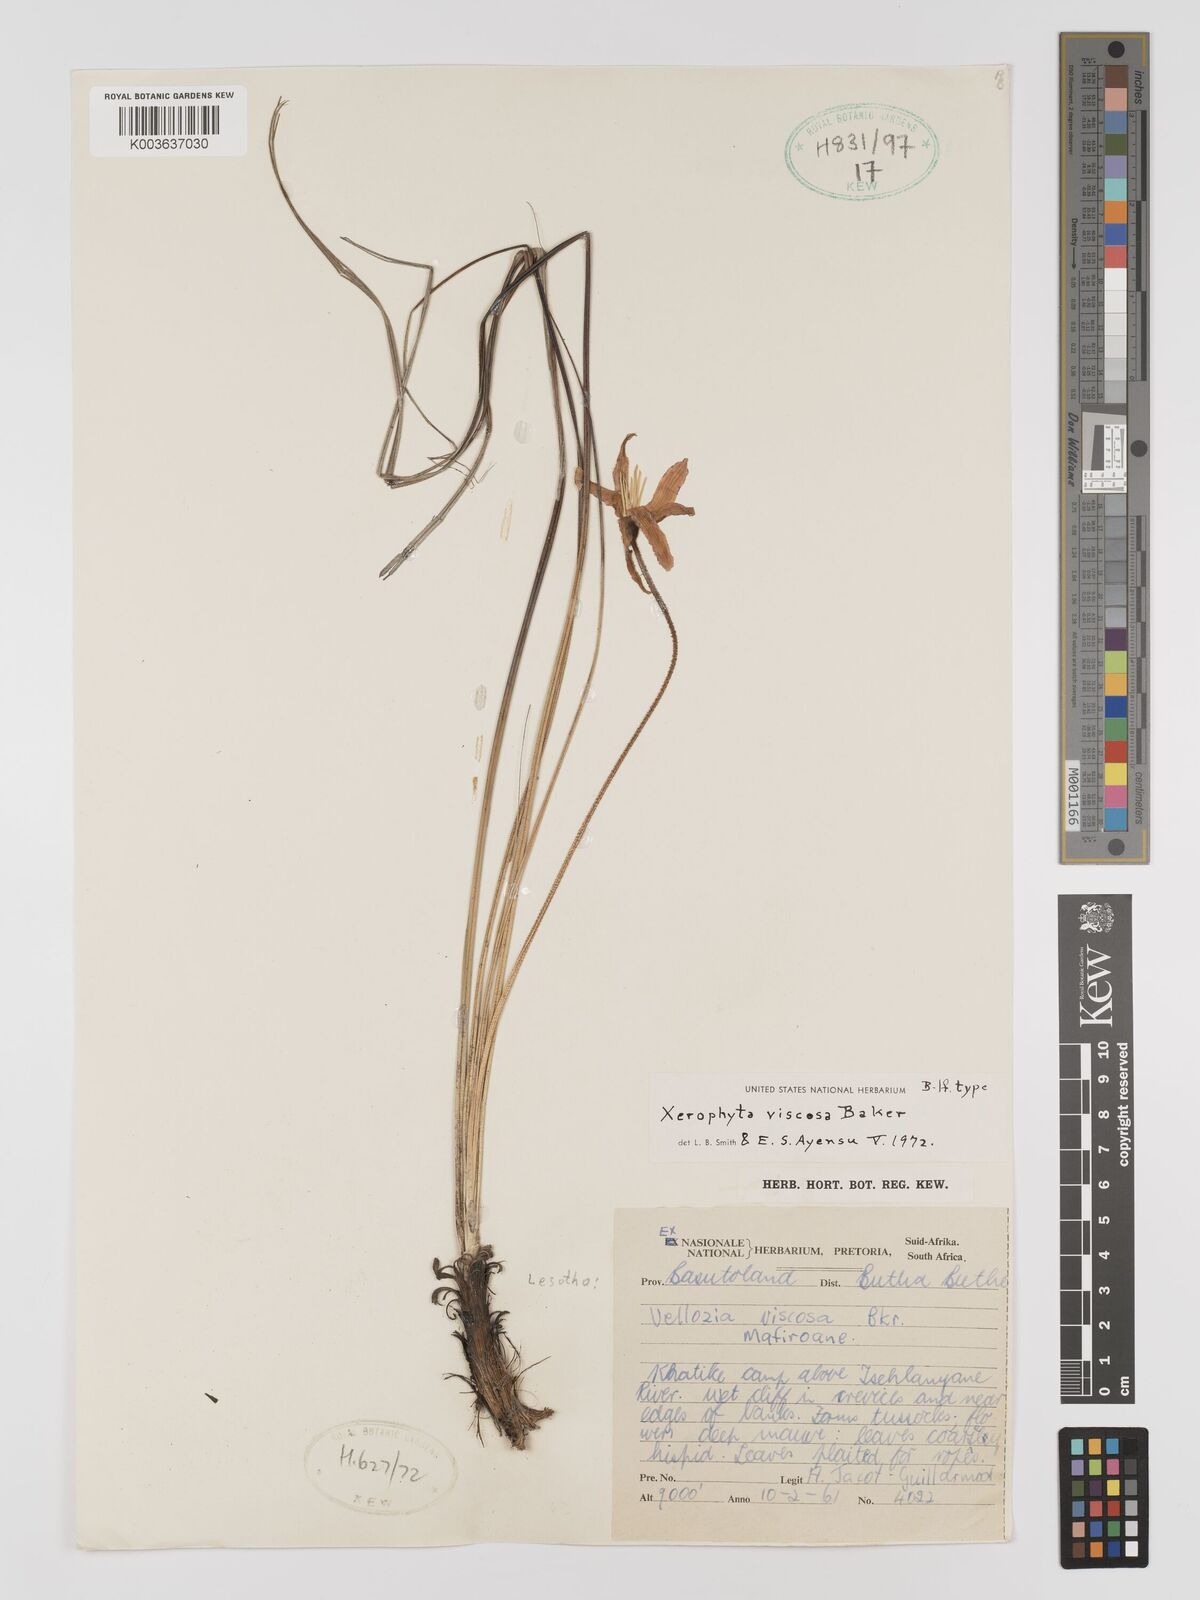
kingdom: Plantae
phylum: Tracheophyta
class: Liliopsida
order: Pandanales
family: Velloziaceae
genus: Xerophyta
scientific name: Xerophyta viscosa
